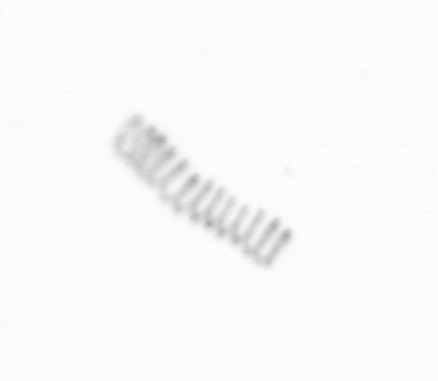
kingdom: Chromista
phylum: Ochrophyta
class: Bacillariophyceae
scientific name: Bacillariophyceae
